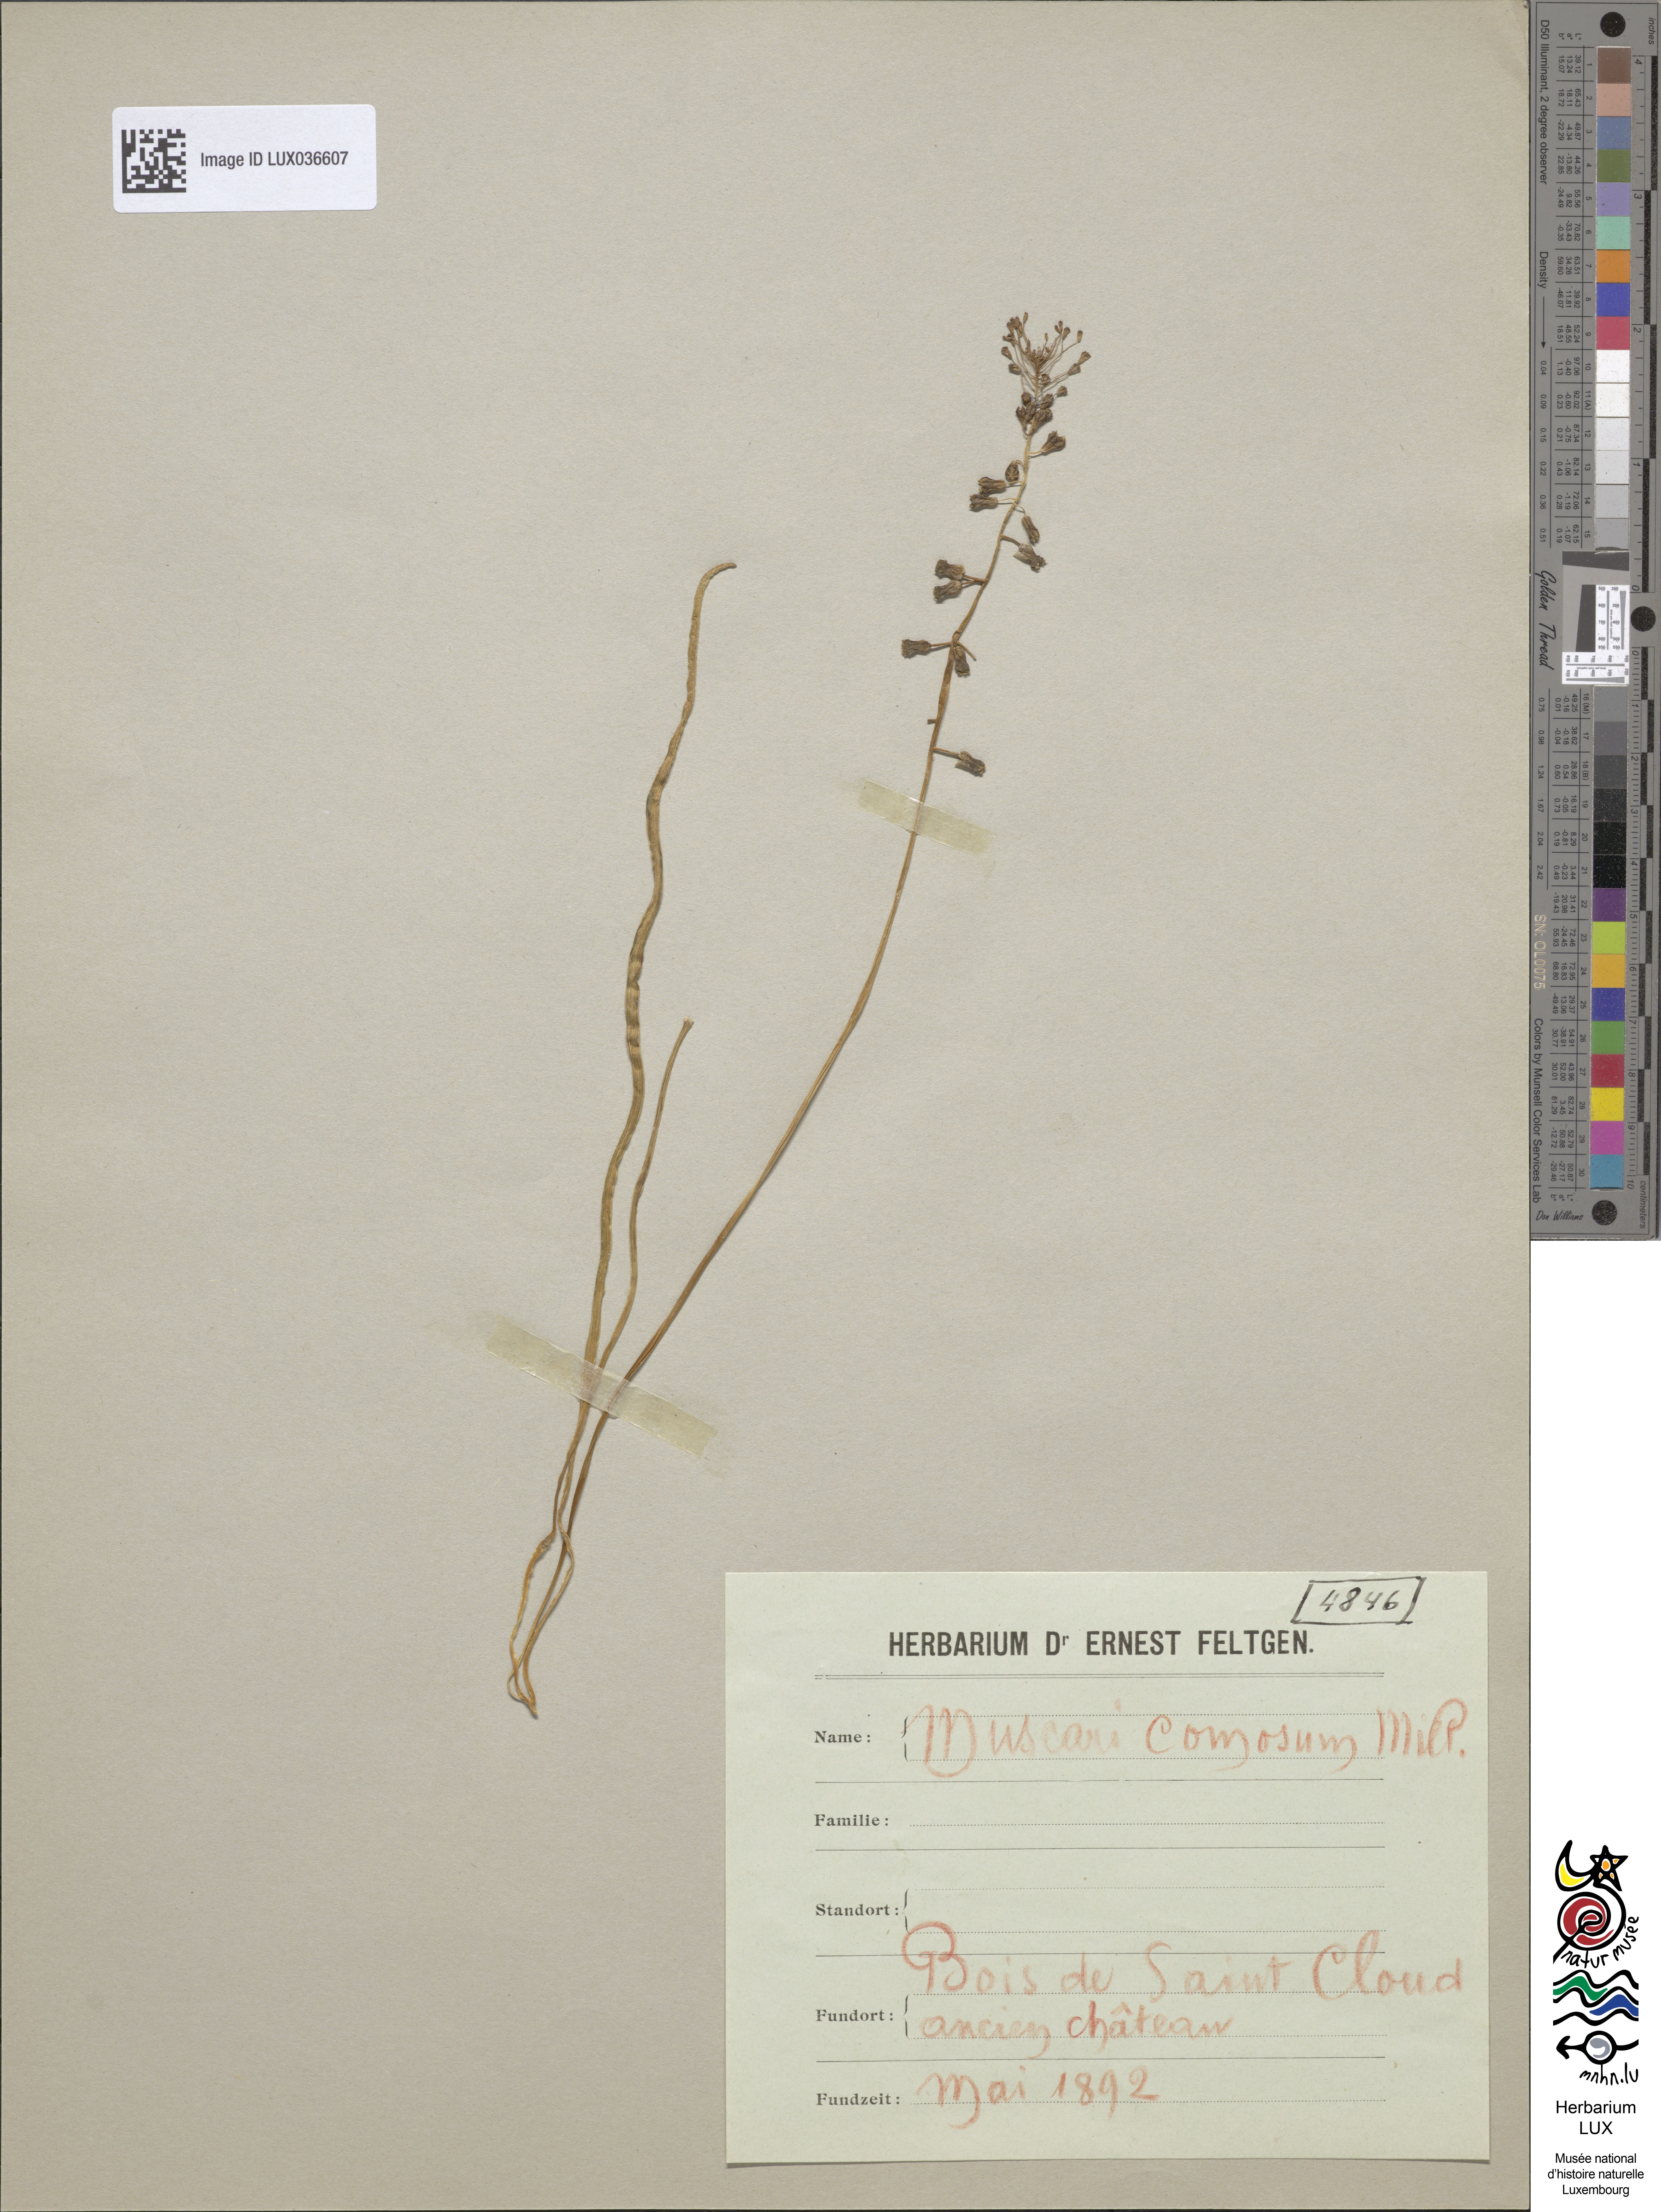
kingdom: Plantae
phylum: Tracheophyta
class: Liliopsida
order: Asparagales
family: Asparagaceae
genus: Muscari
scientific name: Muscari comosum
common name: Tassel hyacinth
